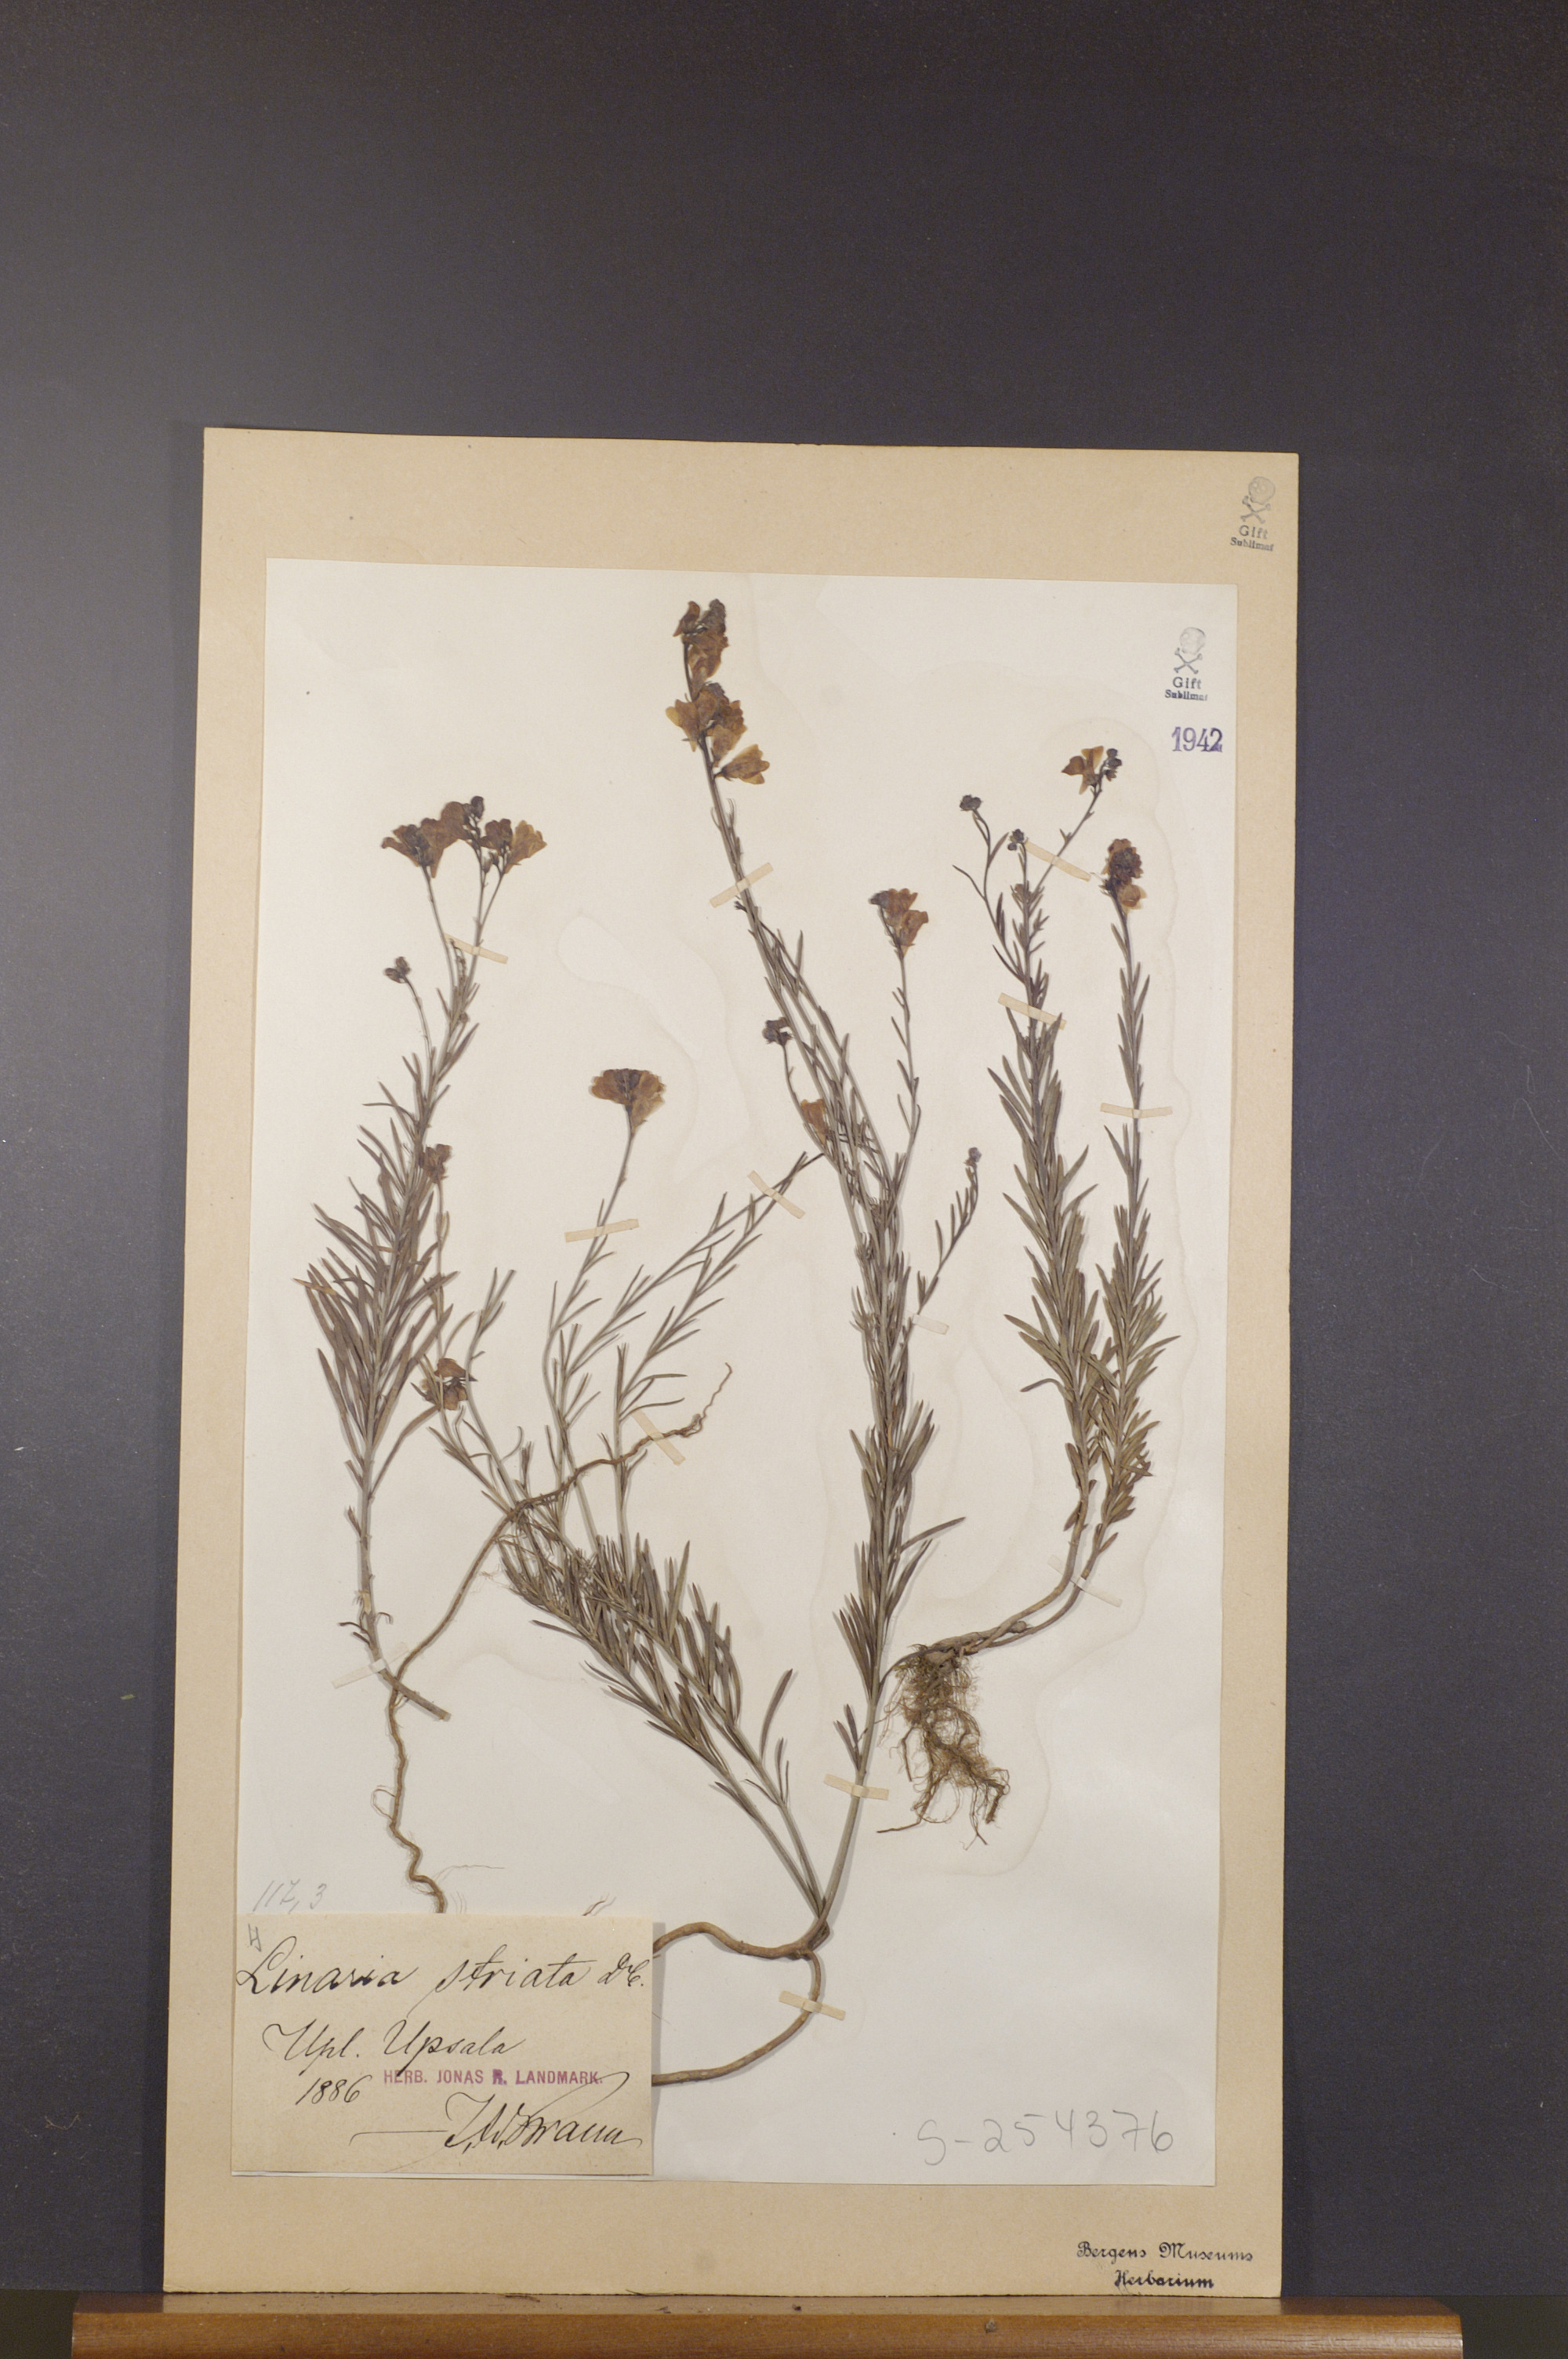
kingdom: Plantae
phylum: Tracheophyta
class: Magnoliopsida
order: Lamiales
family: Plantaginaceae
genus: Linaria
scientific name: Linaria repens
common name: Pale toadflax
